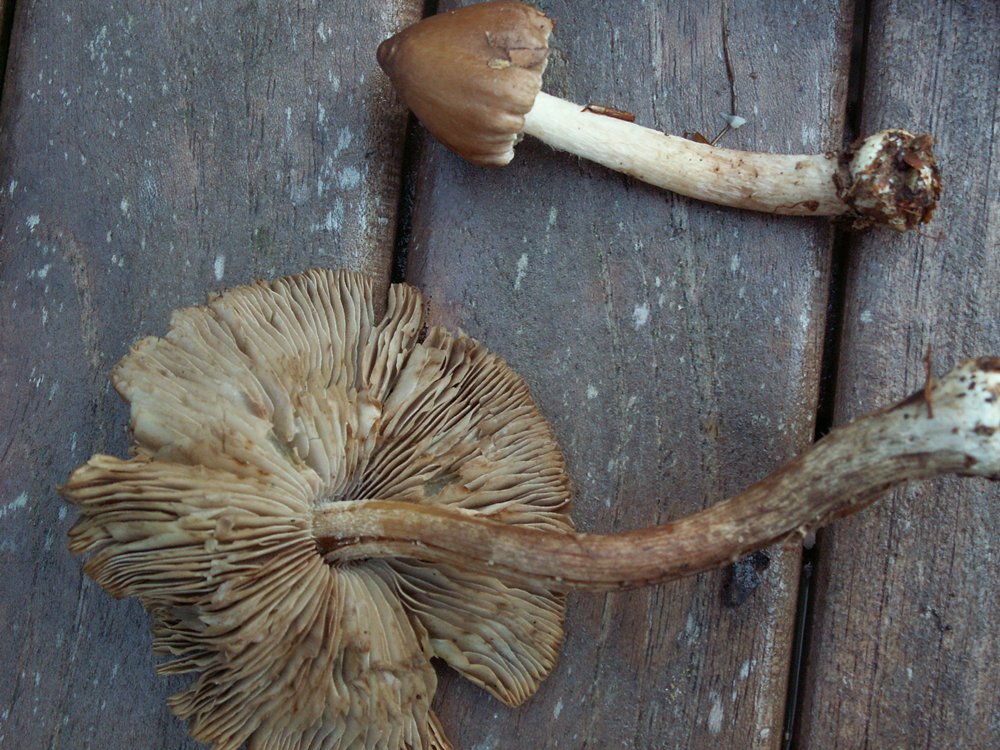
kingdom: Fungi
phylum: Basidiomycota
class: Agaricomycetes
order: Agaricales
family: Inocybaceae
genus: Inocybe
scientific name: Inocybe napipes
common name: roeknoldet trævlhat
